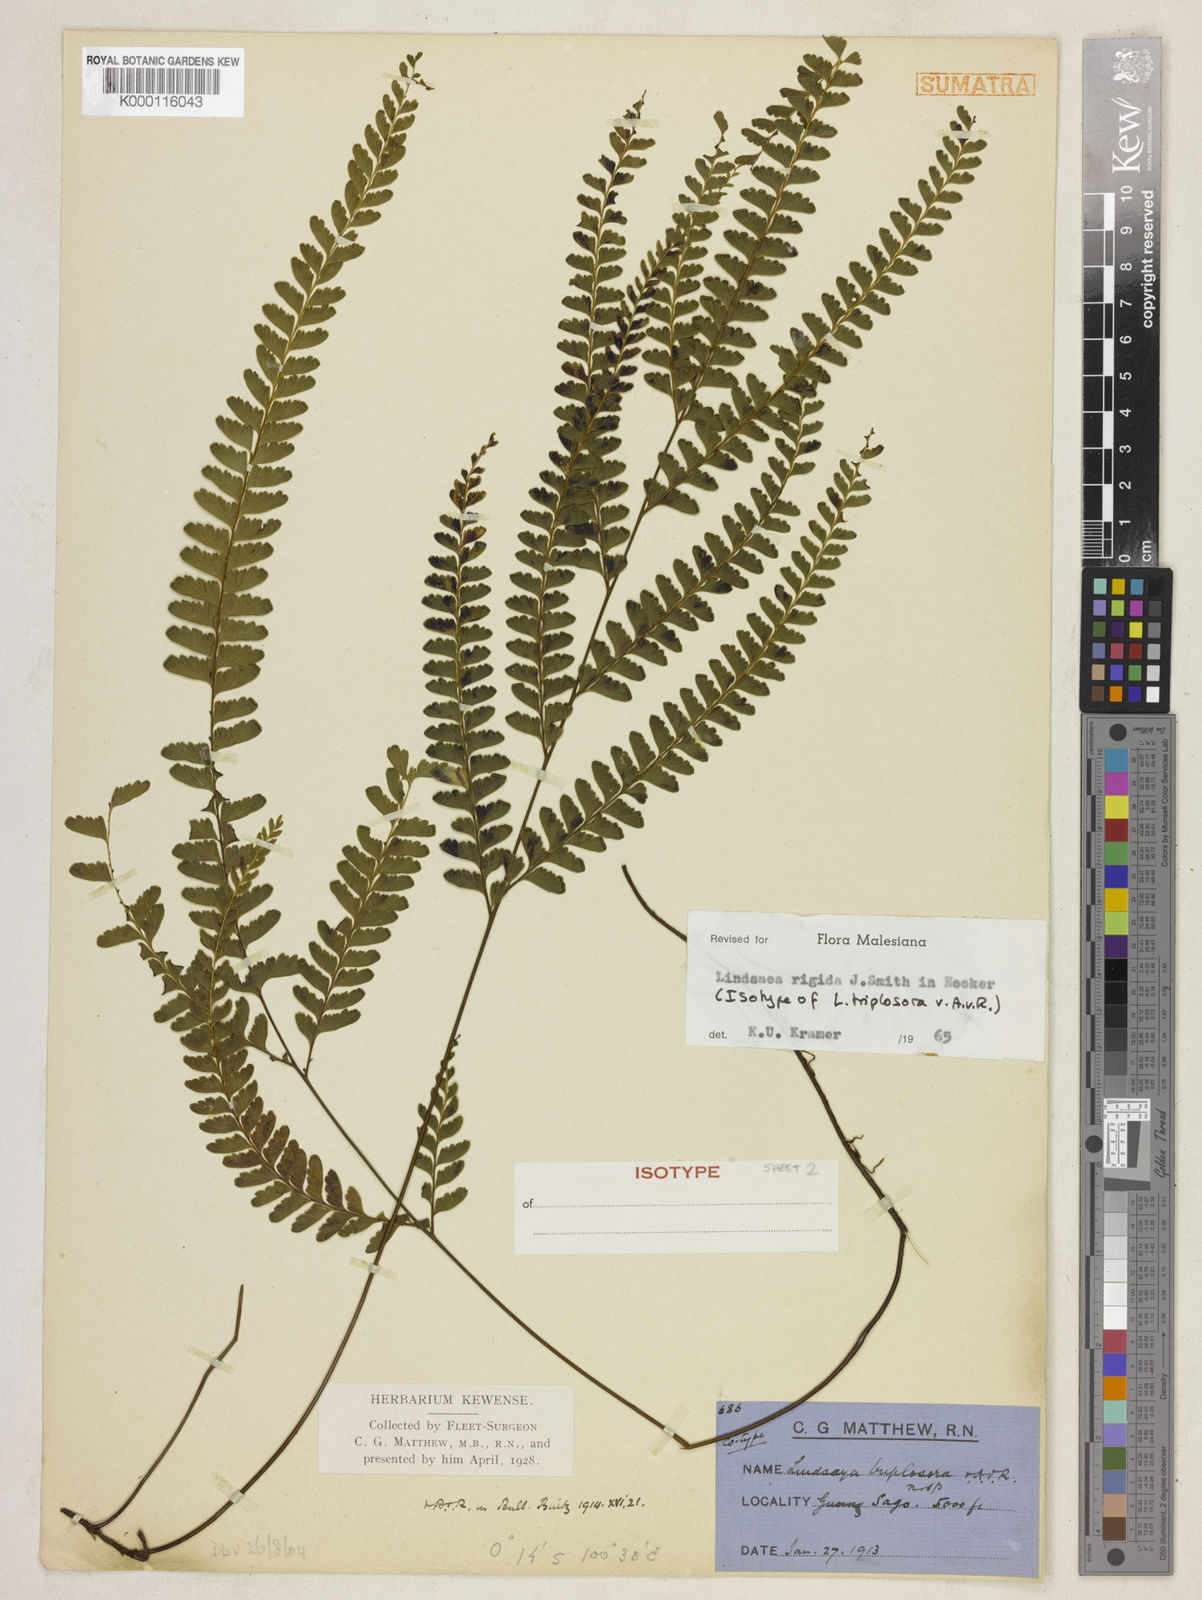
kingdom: Plantae
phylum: Tracheophyta
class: Polypodiopsida
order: Polypodiales
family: Lindsaeaceae
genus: Lindsaea
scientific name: Lindsaea rigida
